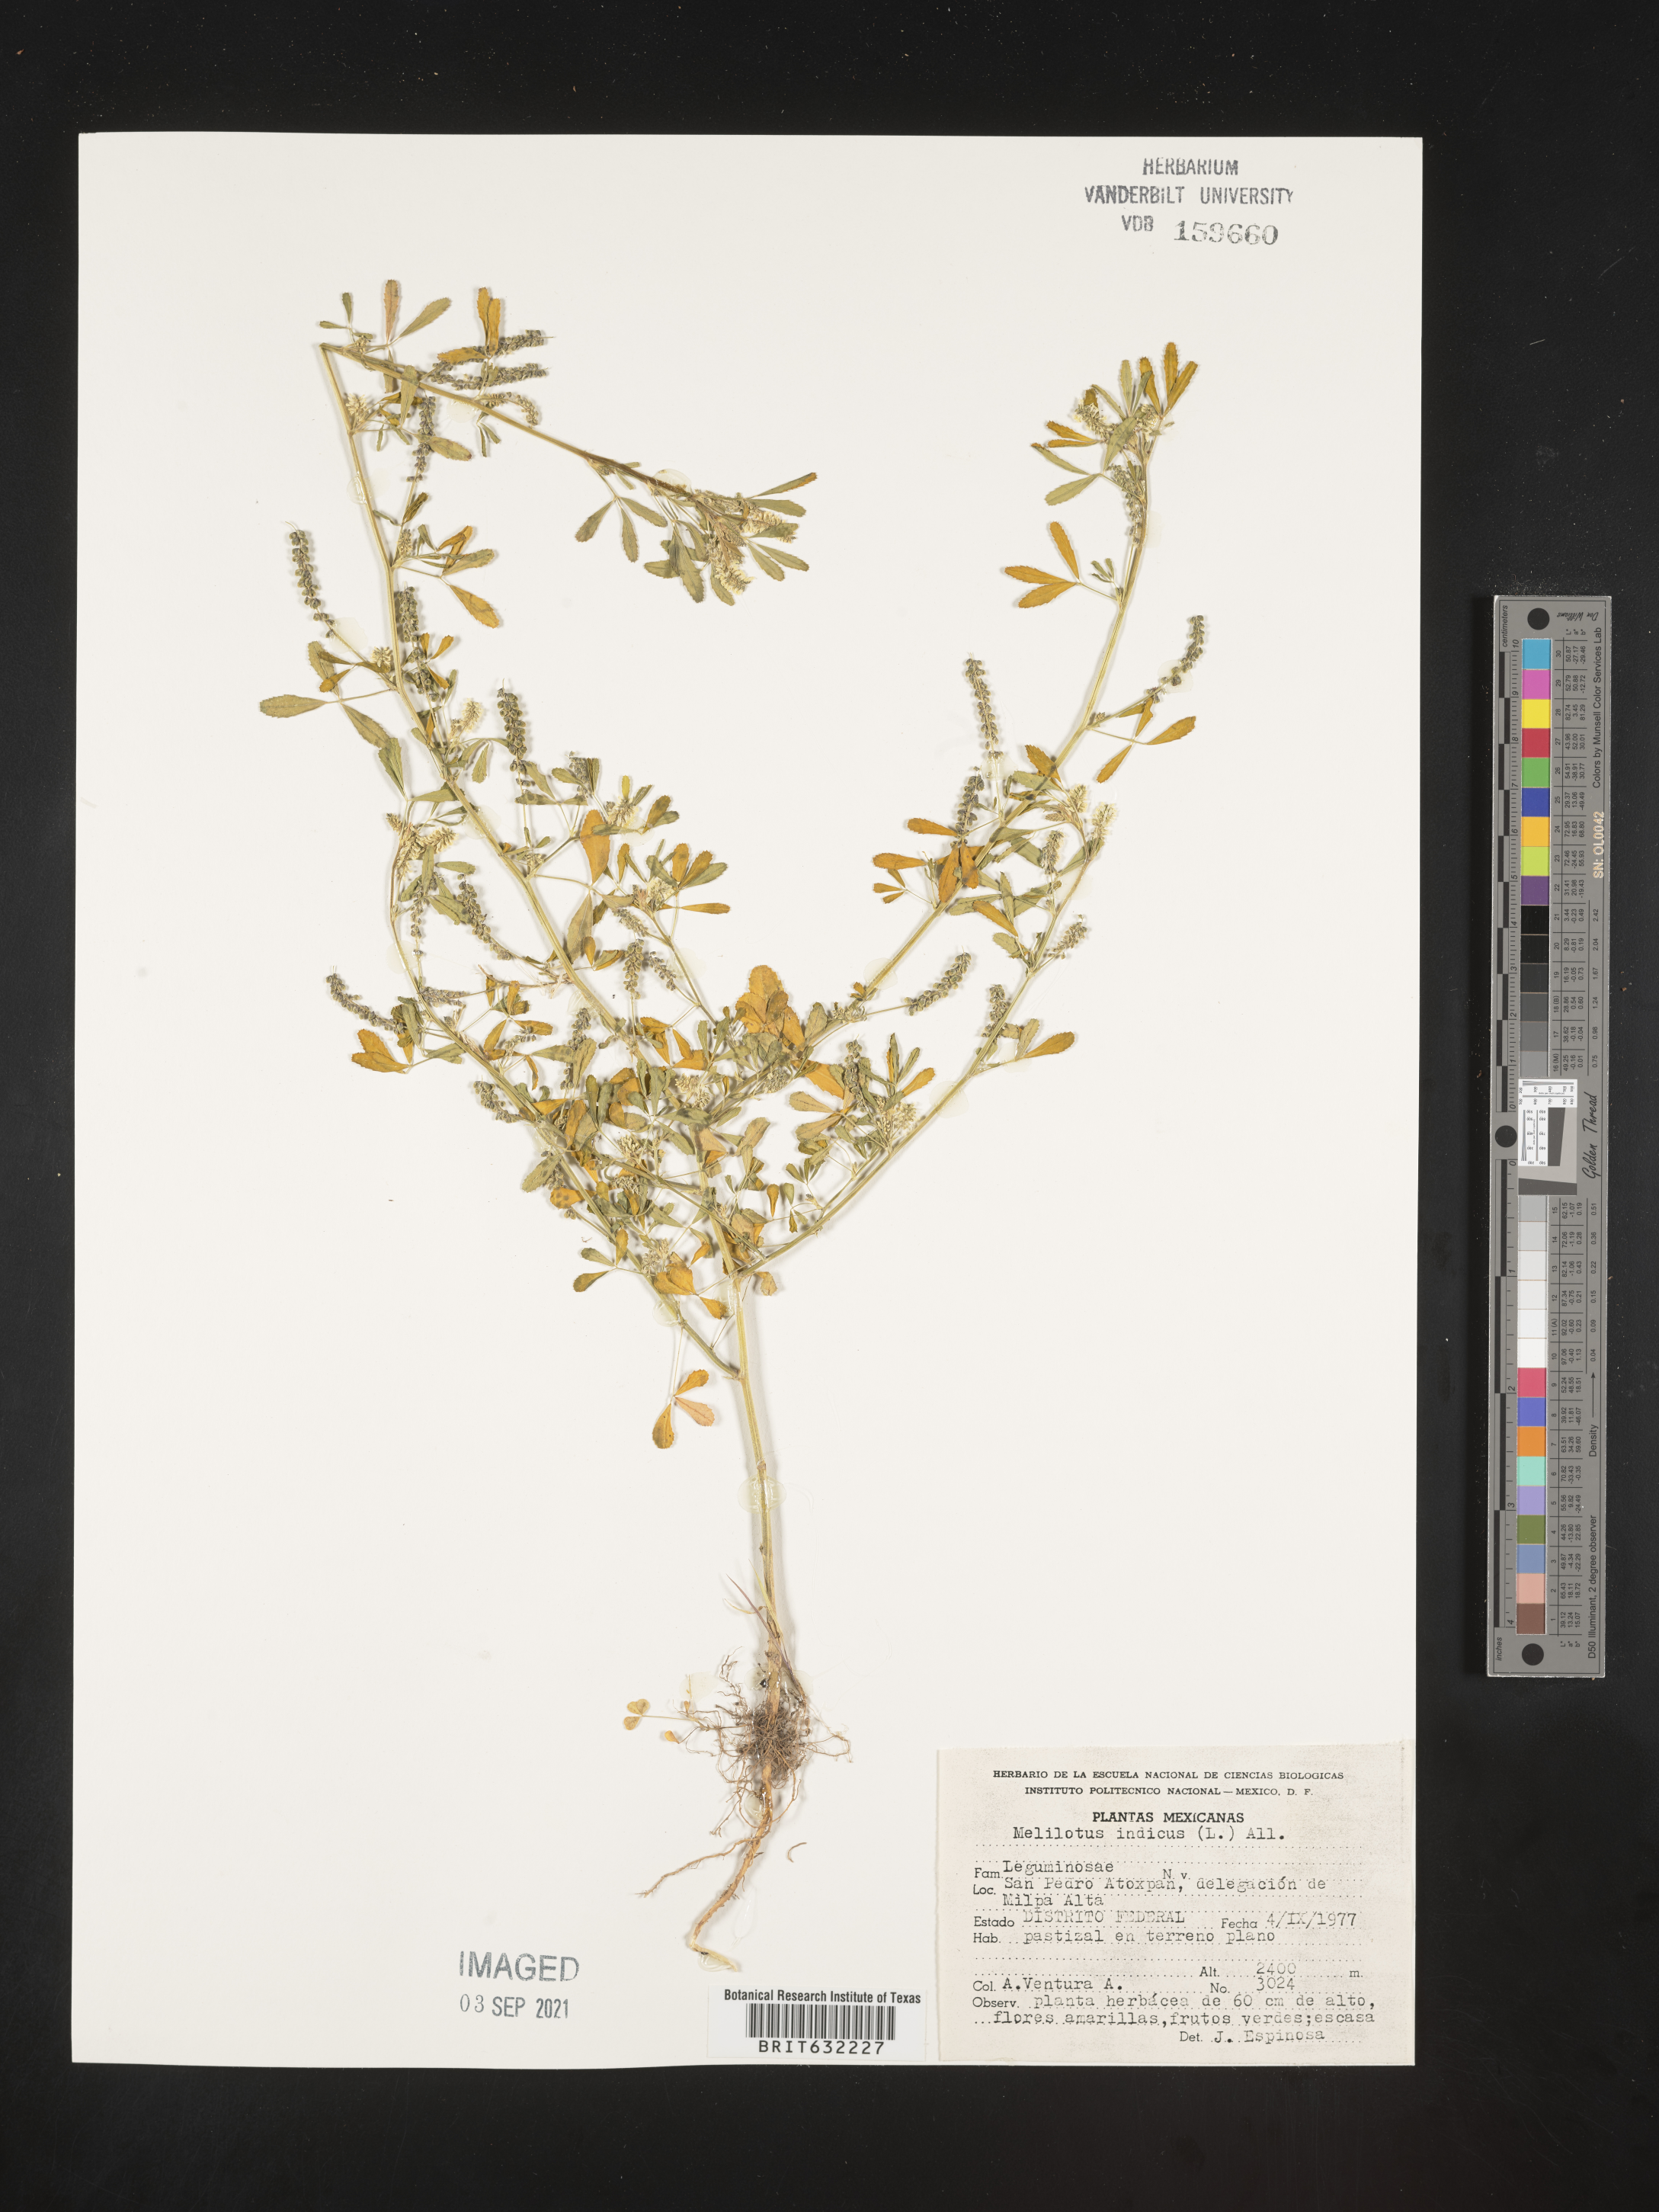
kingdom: Plantae
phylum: Tracheophyta
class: Magnoliopsida
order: Fabales
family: Fabaceae
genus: Melilotus
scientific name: Melilotus
